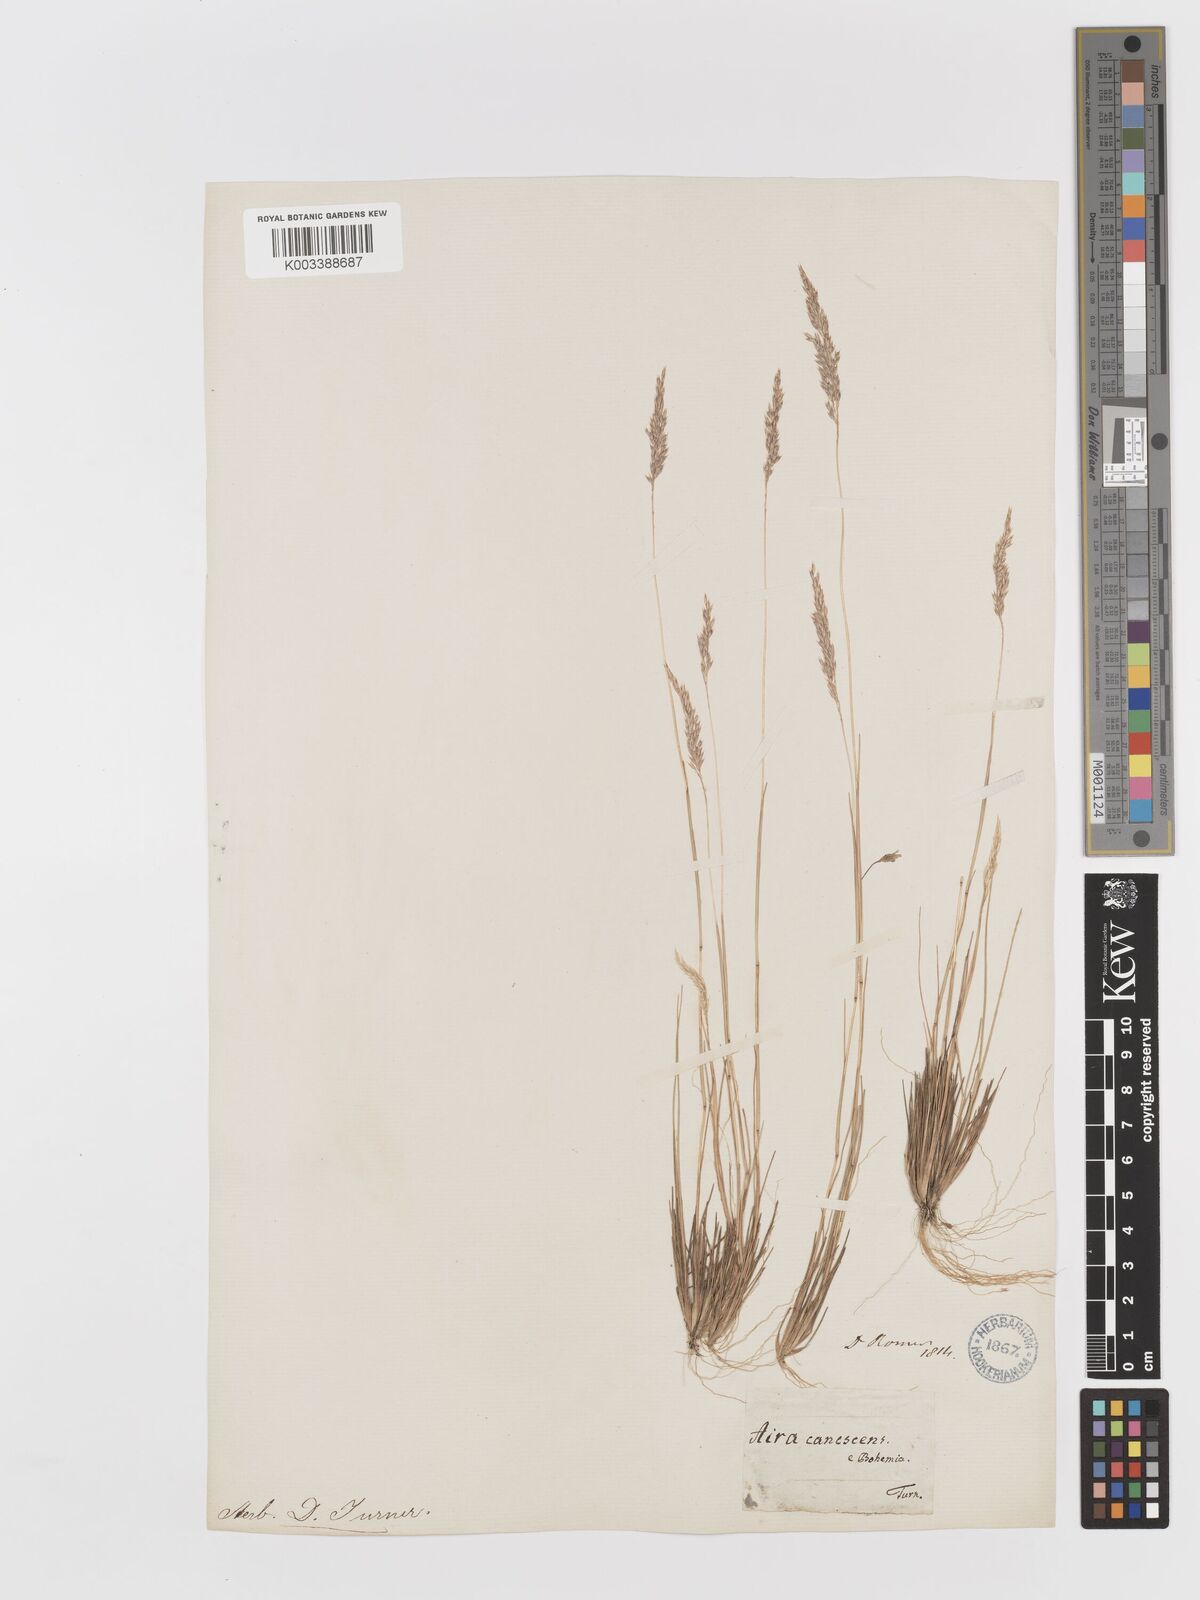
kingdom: Plantae
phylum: Tracheophyta
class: Liliopsida
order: Poales
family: Poaceae
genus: Corynephorus
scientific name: Corynephorus canescens
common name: Grey hair-grass
